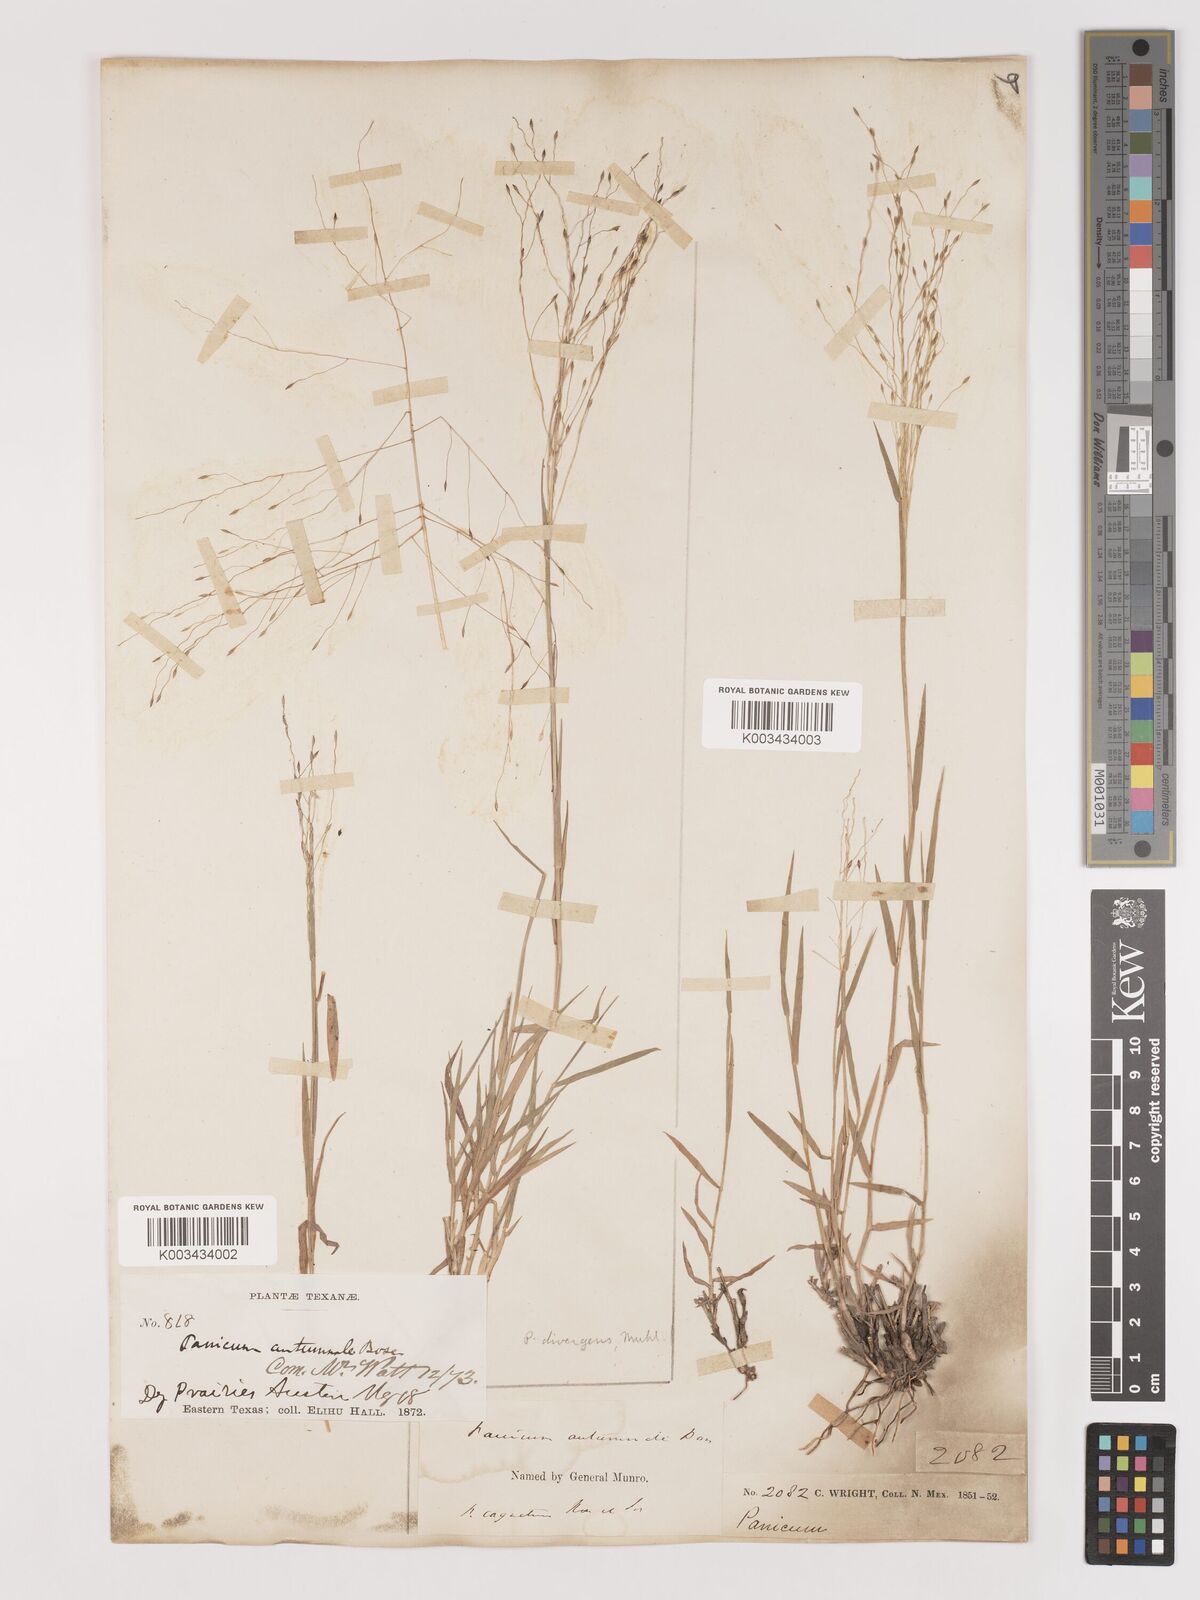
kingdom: Plantae
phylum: Tracheophyta
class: Liliopsida
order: Poales
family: Poaceae
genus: Digitaria
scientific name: Digitaria
